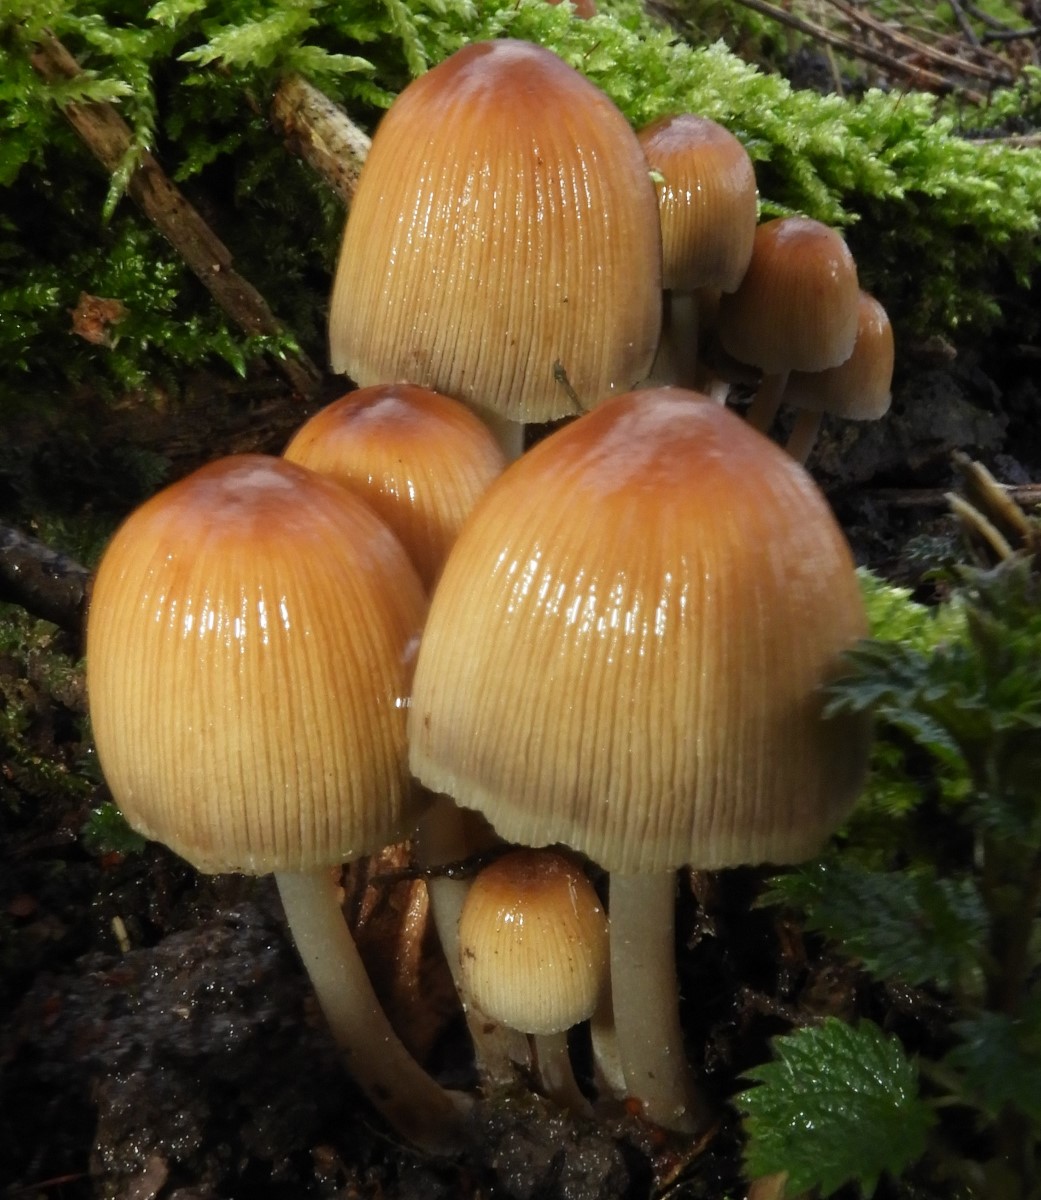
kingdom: Fungi
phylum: Basidiomycota
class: Agaricomycetes
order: Agaricales
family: Psathyrellaceae
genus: Coprinellus
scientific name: Coprinellus micaceus
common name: glimmer-blækhat
